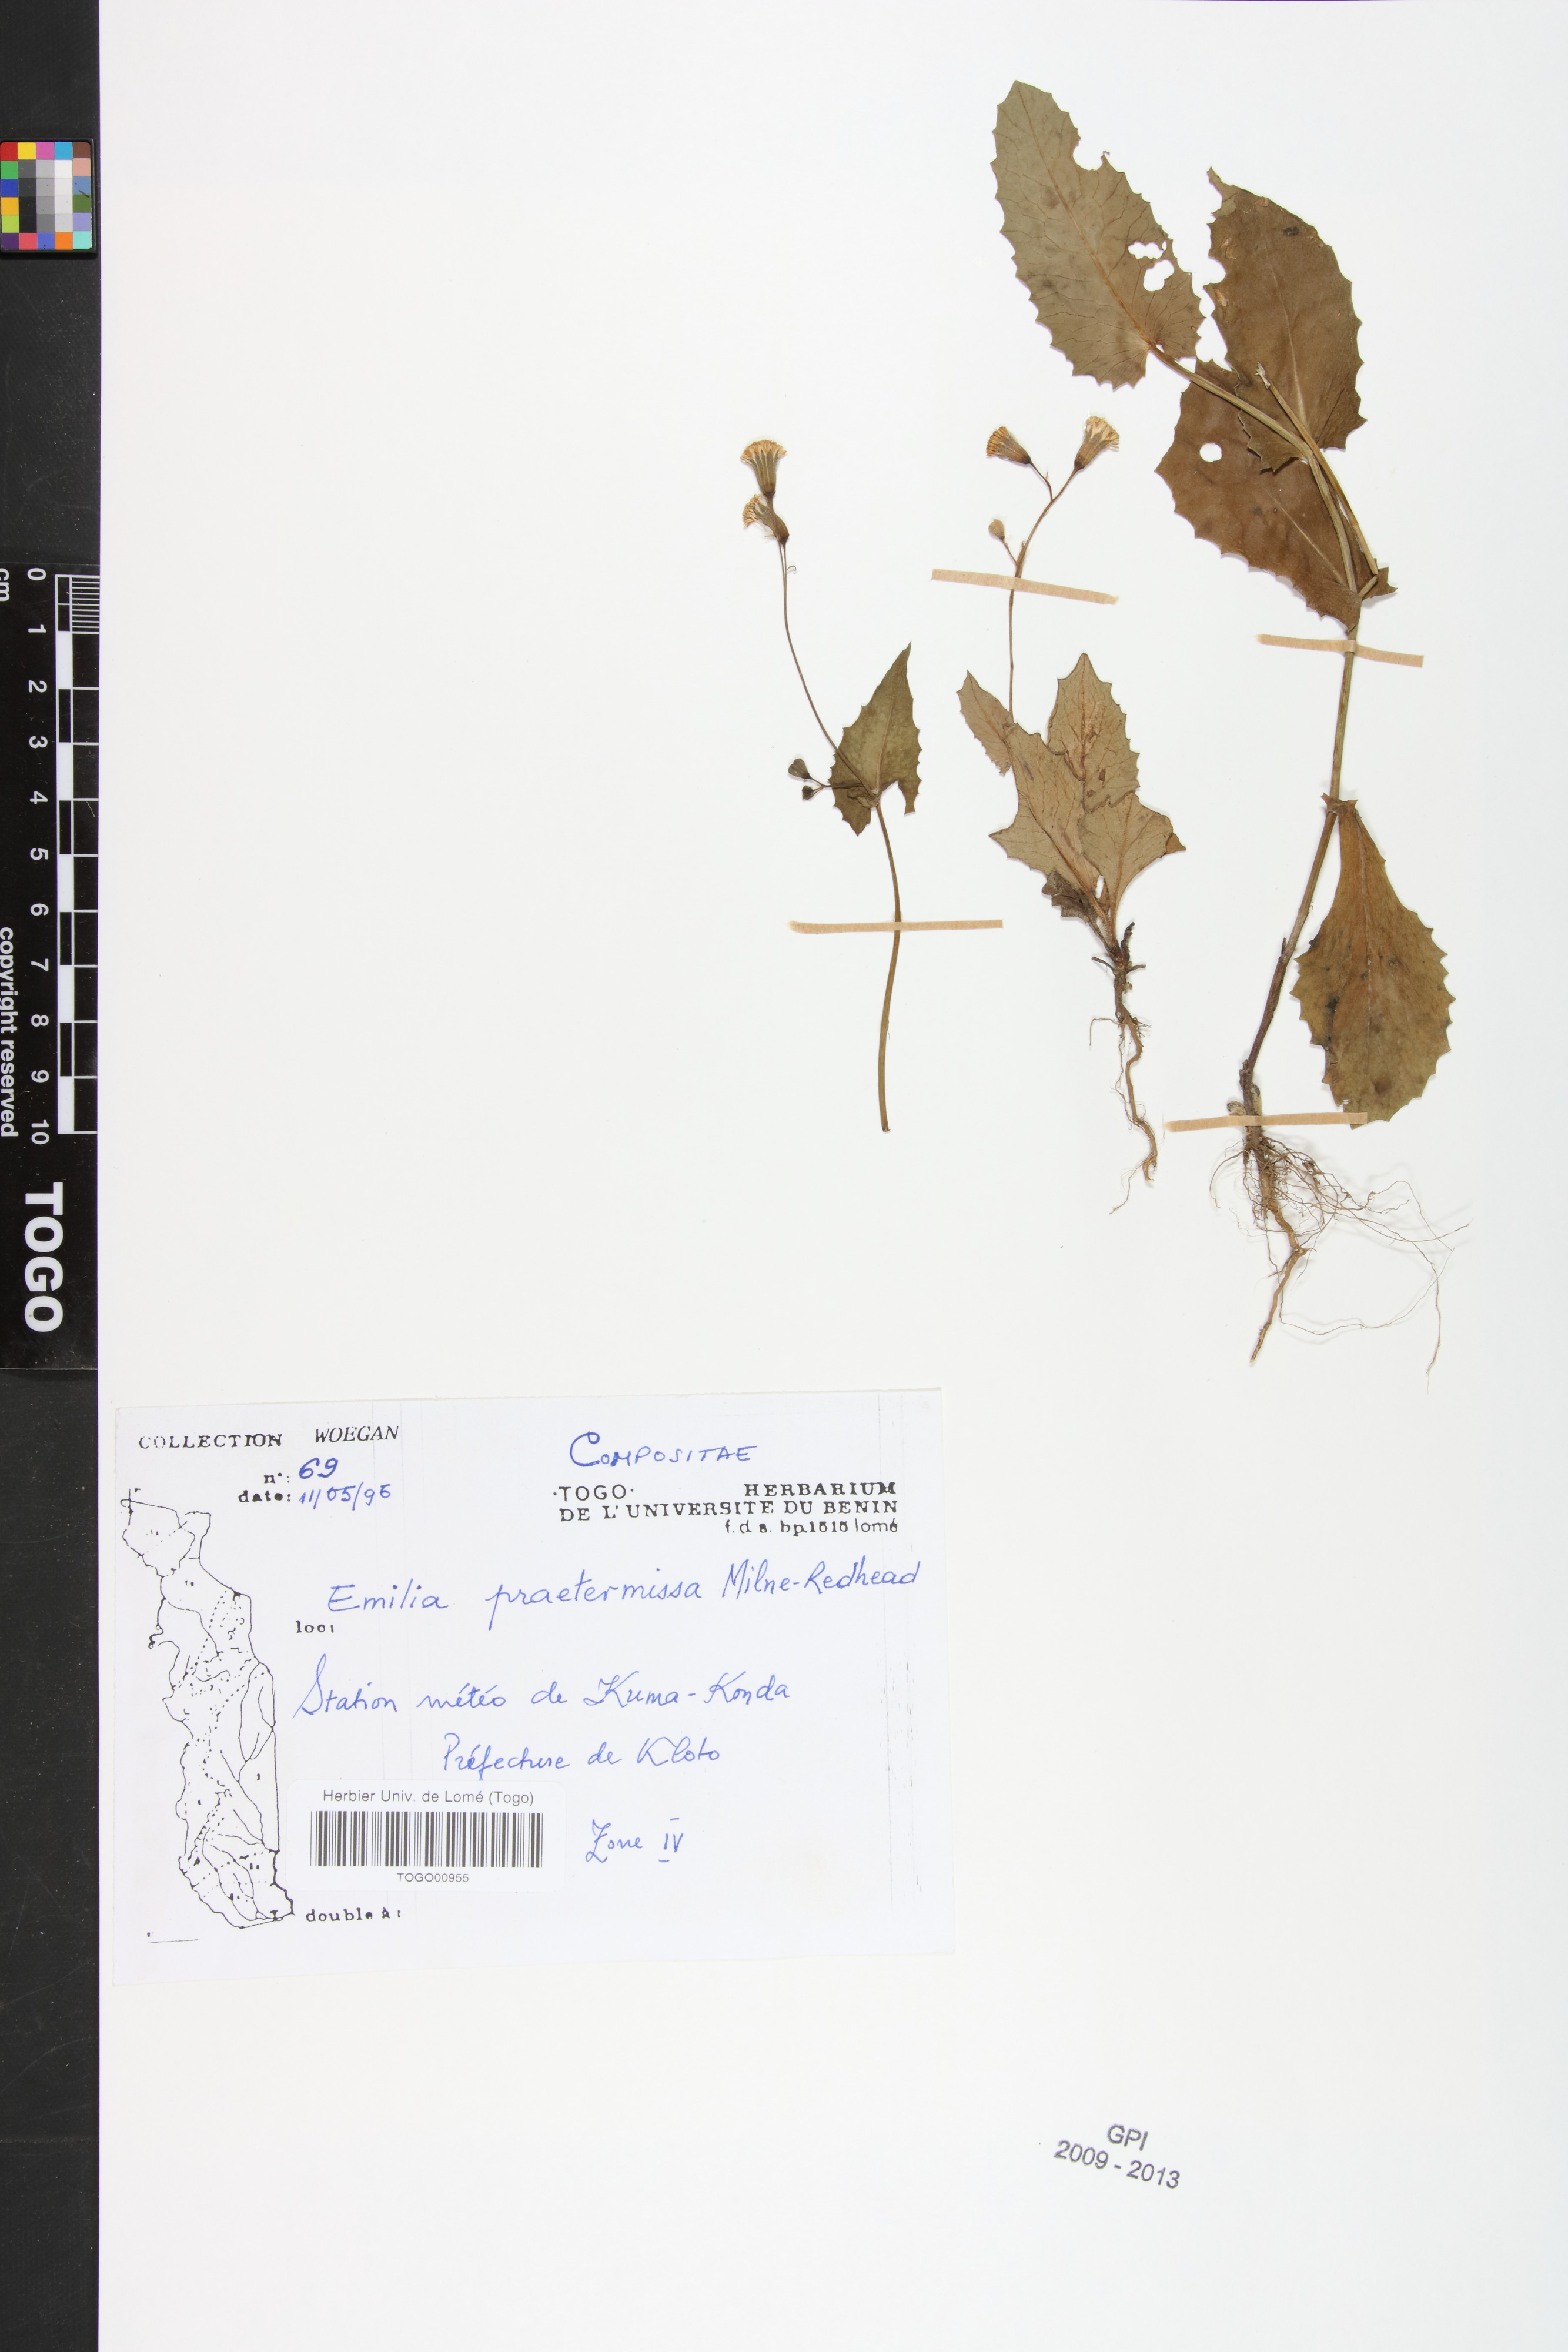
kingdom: Plantae
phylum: Tracheophyta
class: Magnoliopsida
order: Asterales
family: Asteraceae
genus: Emilia
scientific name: Emilia praetermissa
